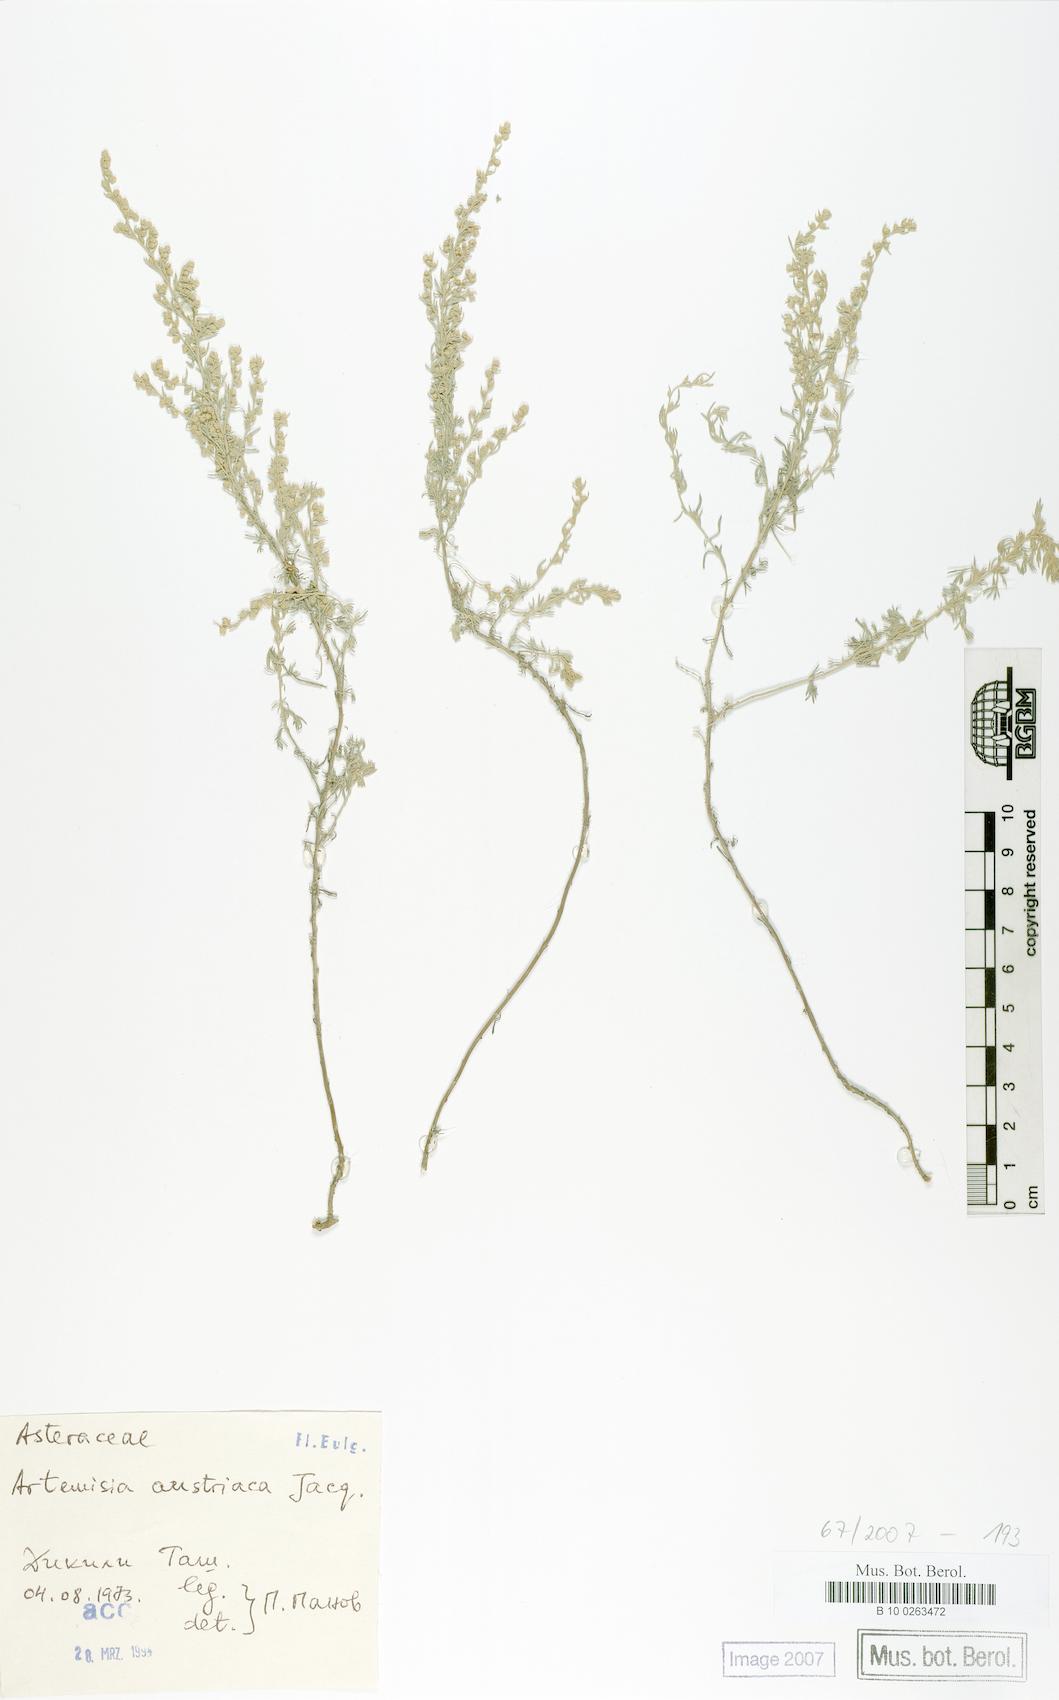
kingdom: Plantae
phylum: Tracheophyta
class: Magnoliopsida
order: Asterales
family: Asteraceae
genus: Artemisia
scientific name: Artemisia austriaca
